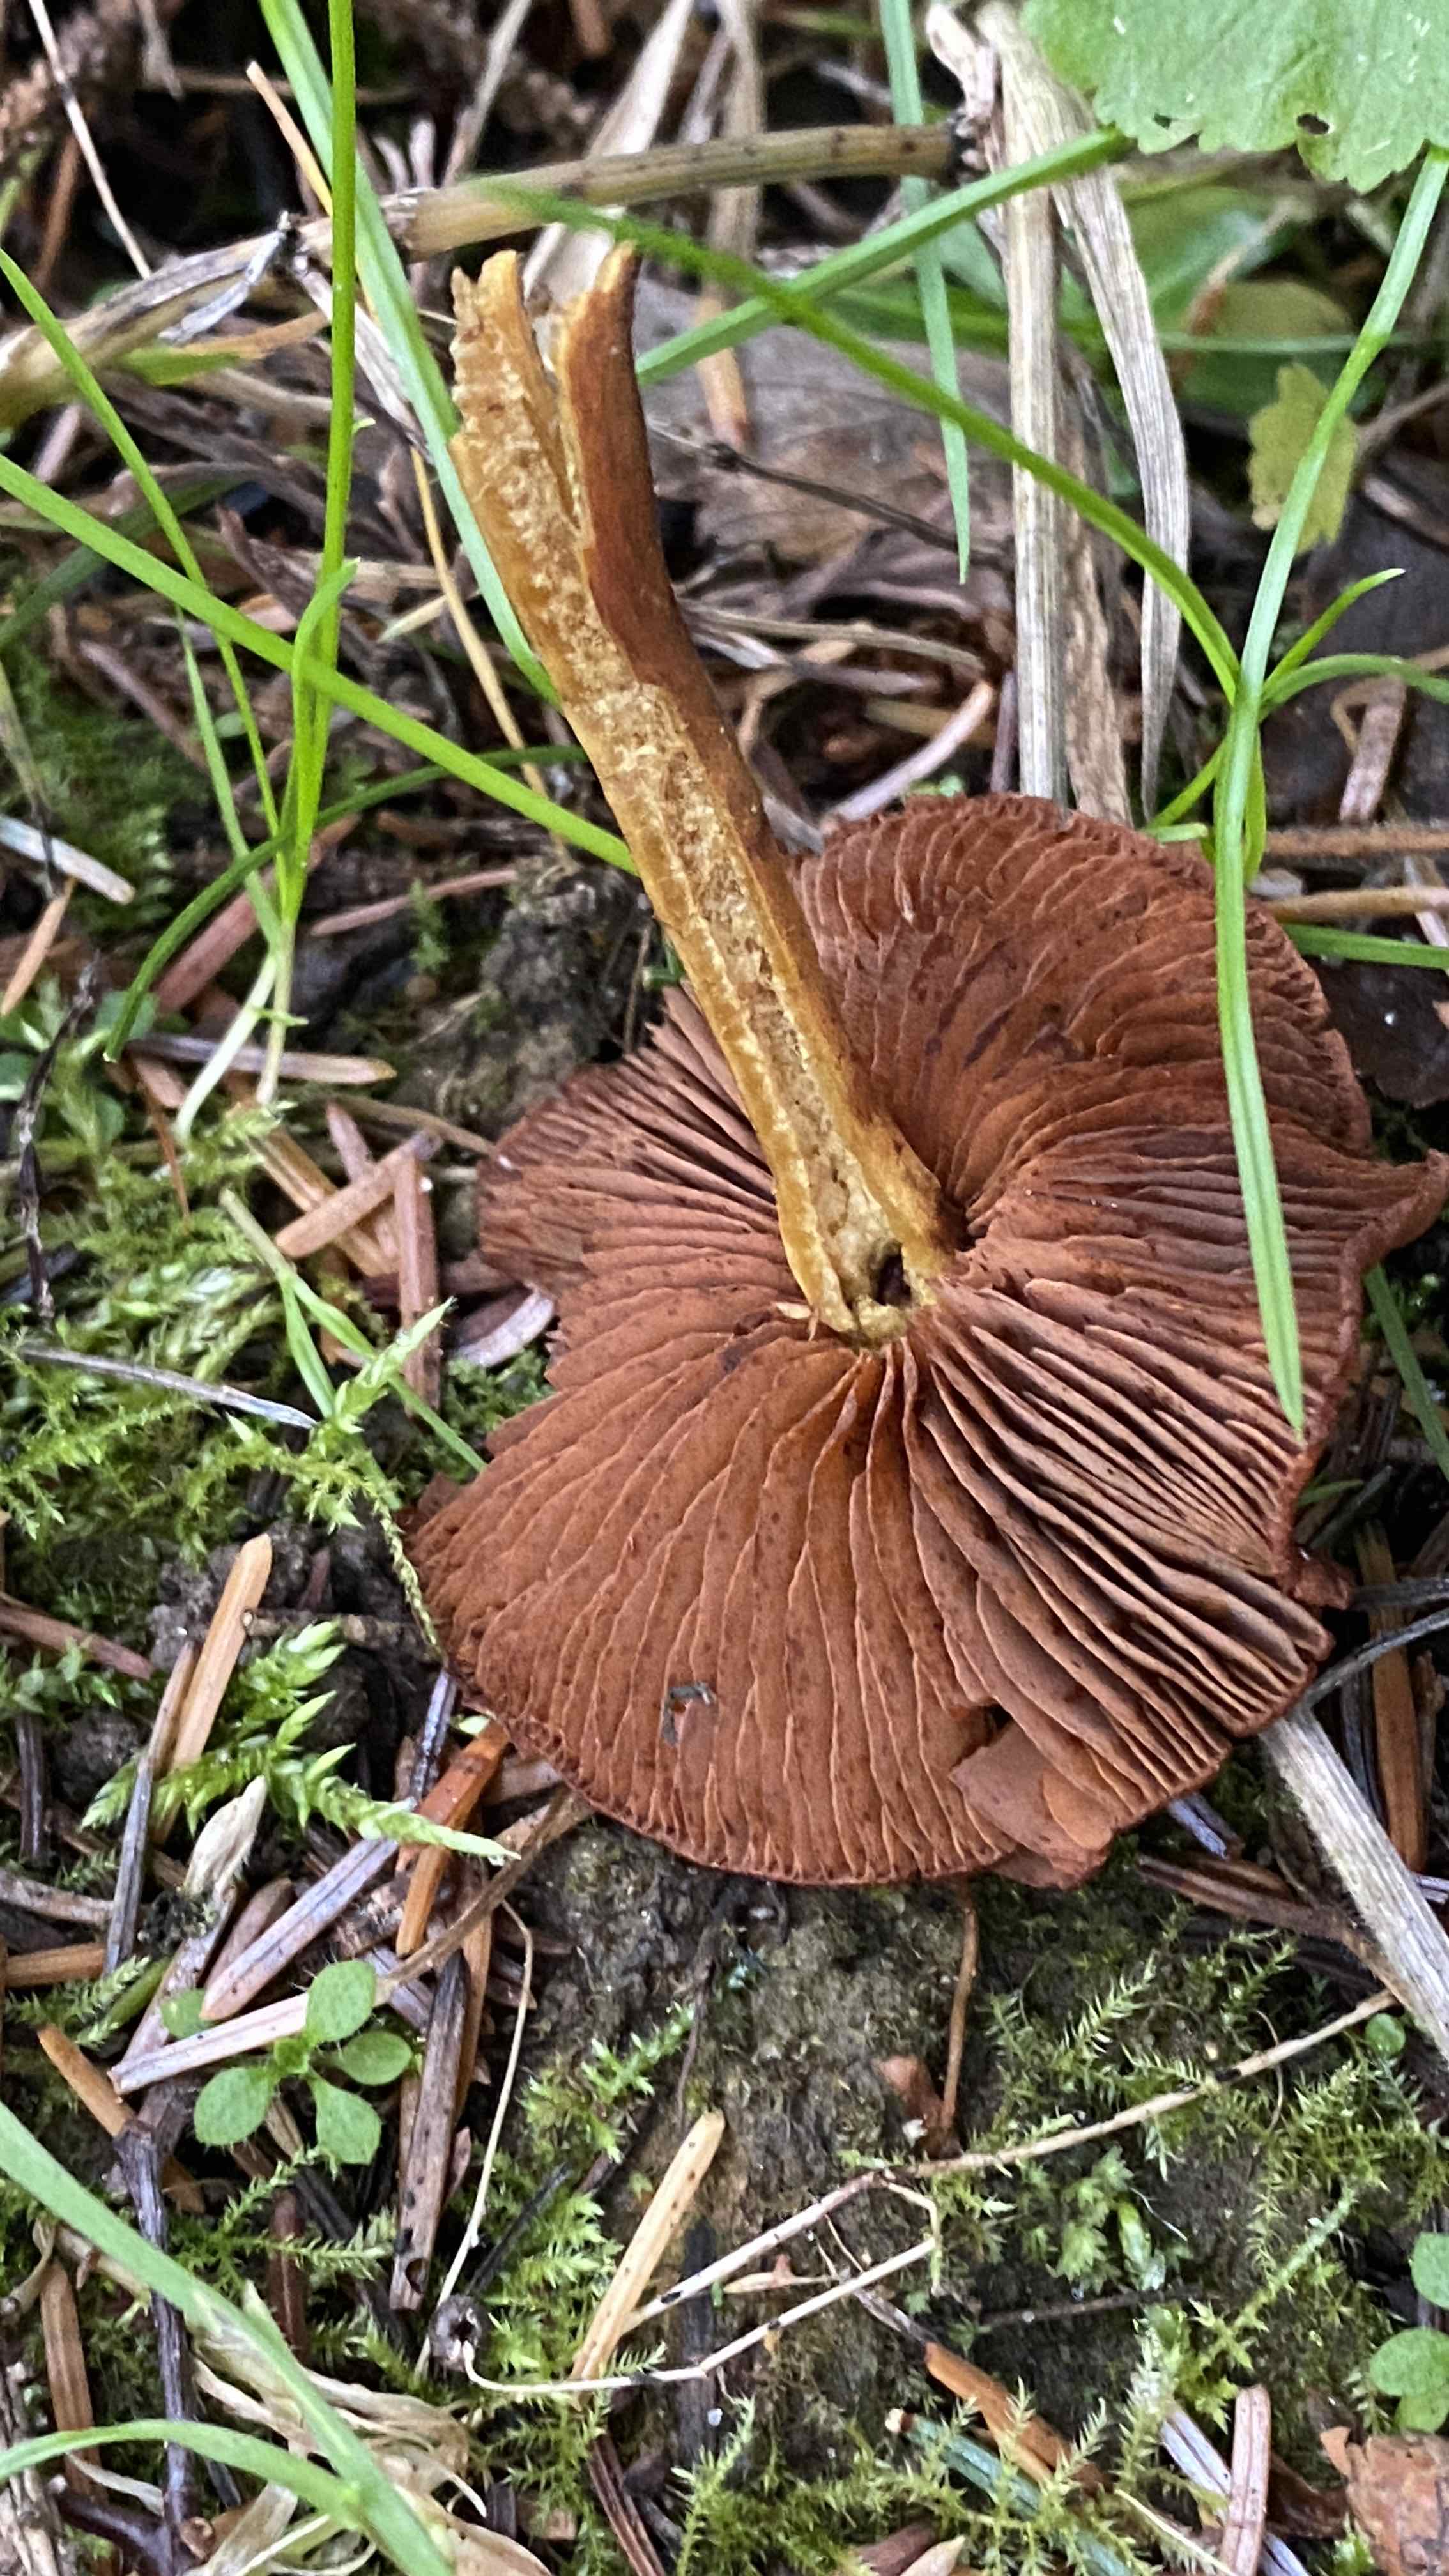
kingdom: Fungi
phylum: Basidiomycota
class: Agaricomycetes
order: Agaricales
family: Cortinariaceae
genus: Cortinarius
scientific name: Cortinarius
